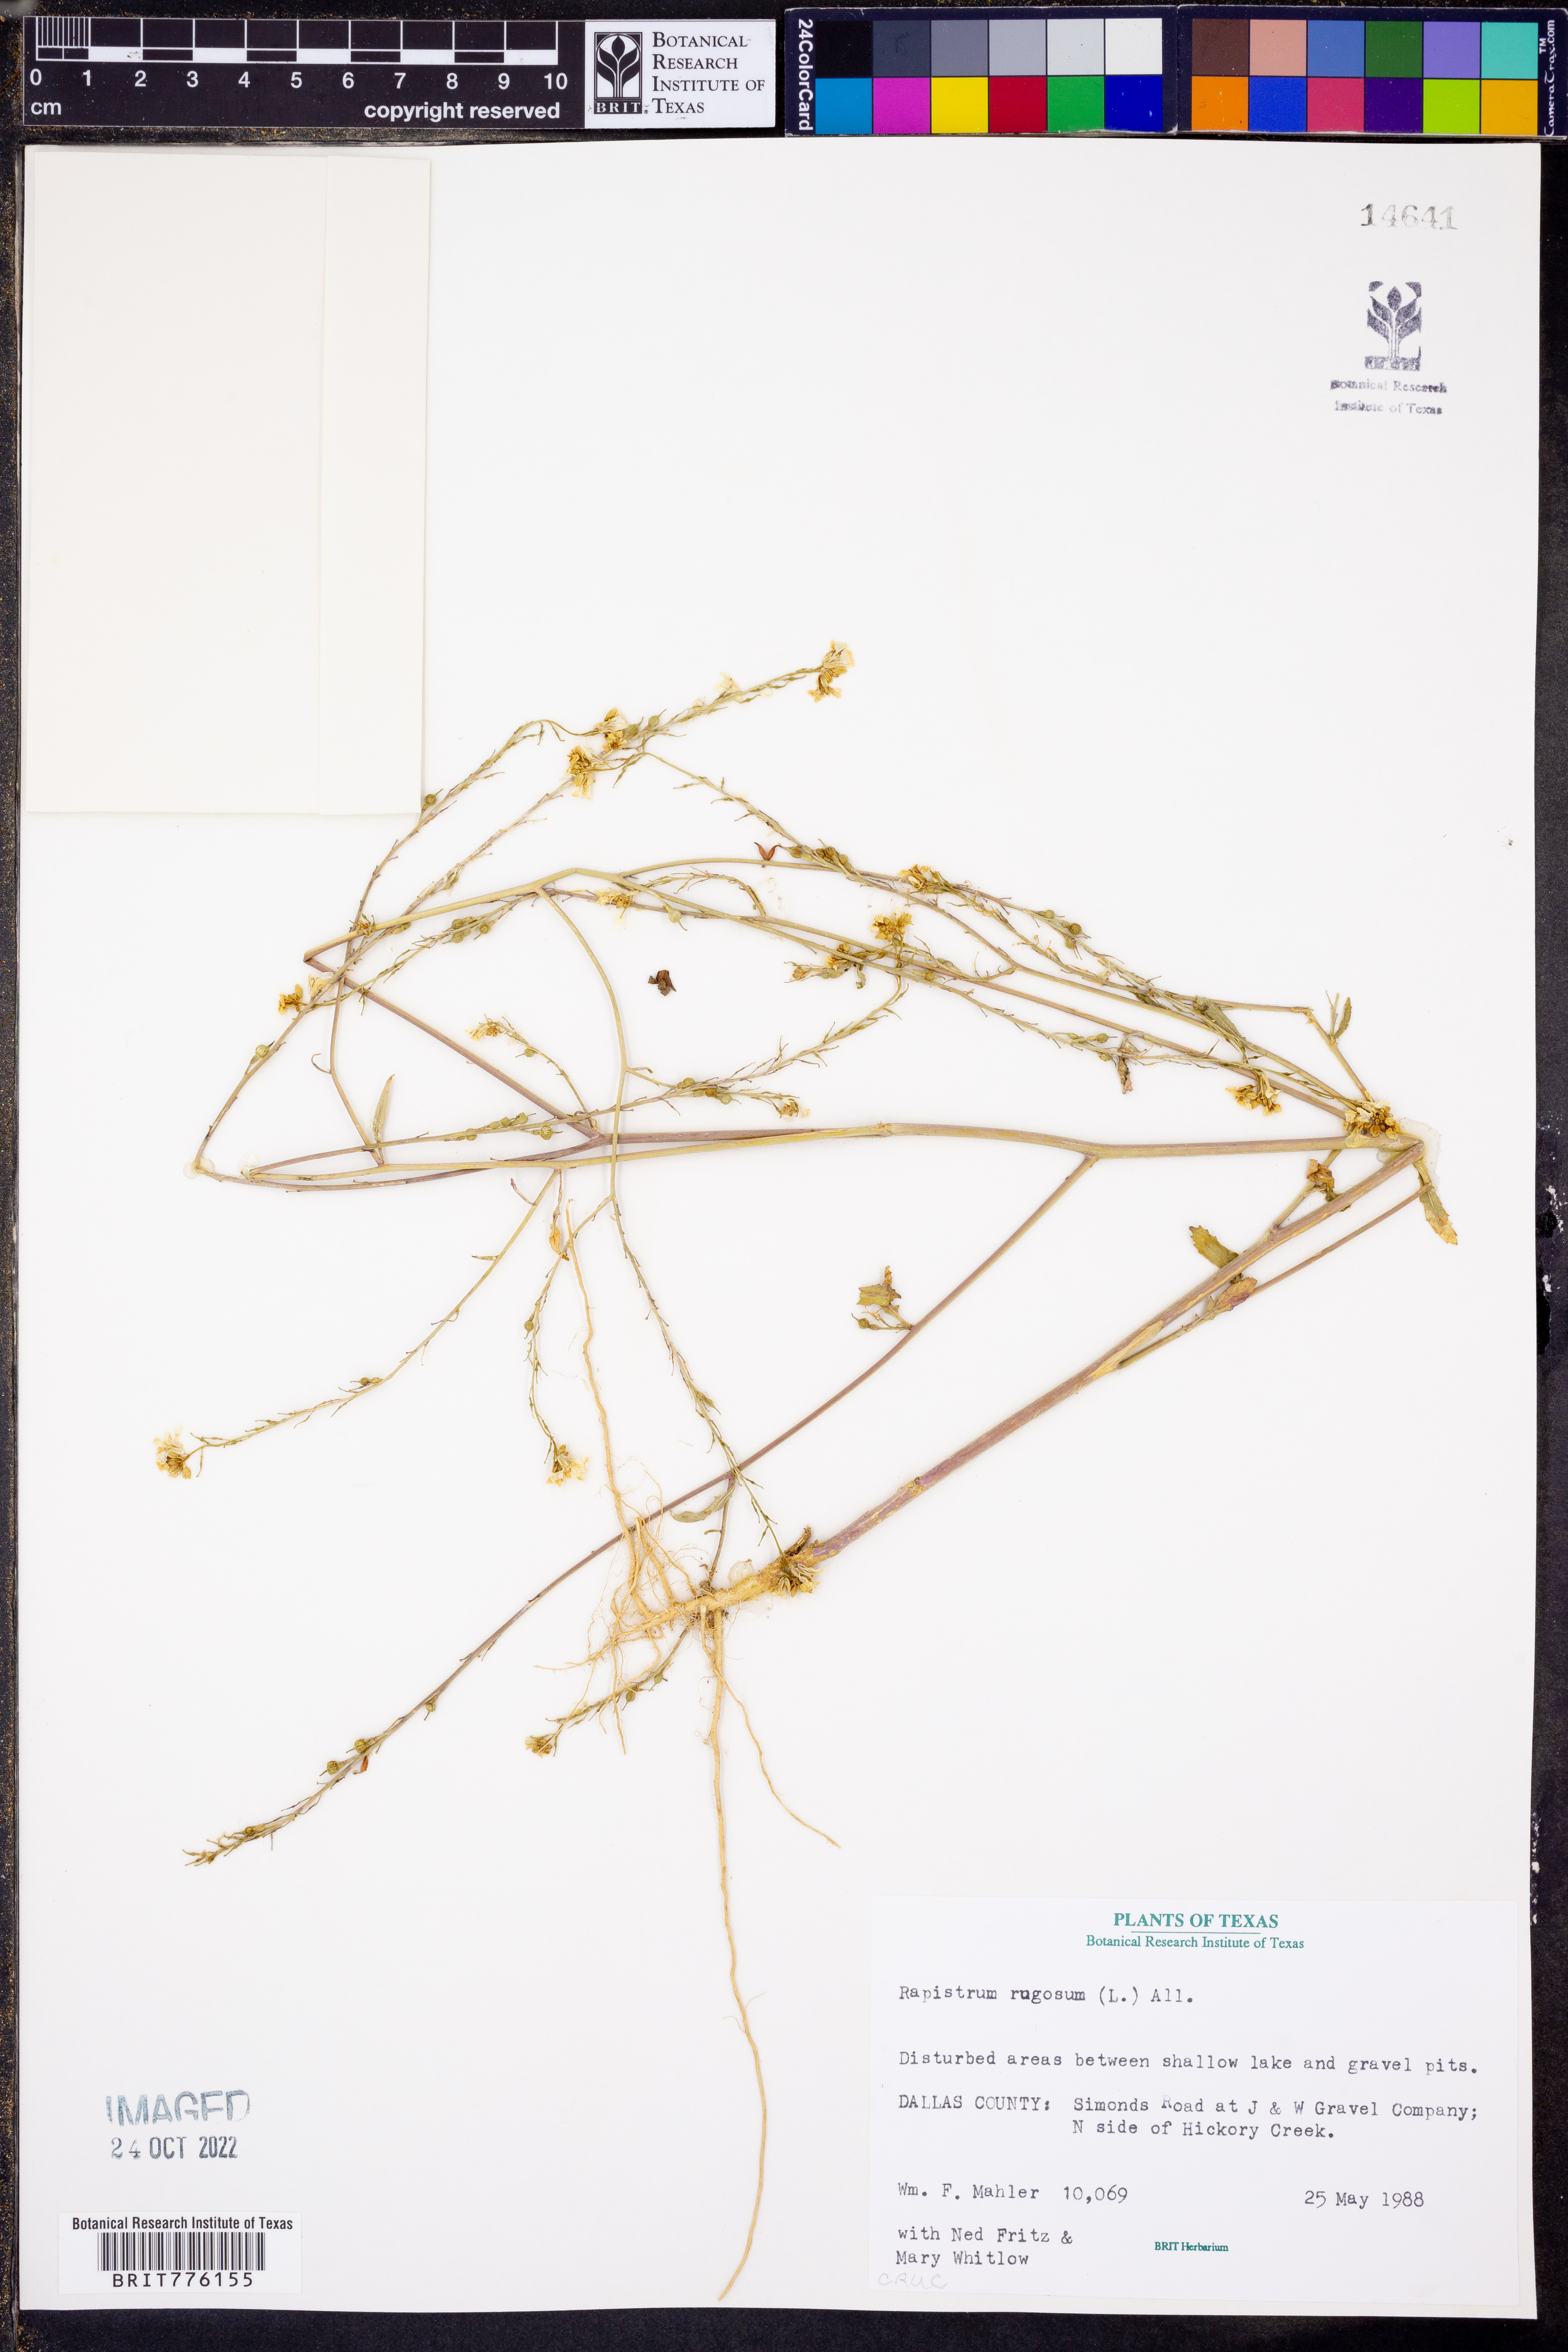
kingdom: Plantae
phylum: Tracheophyta
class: Magnoliopsida
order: Brassicales
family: Brassicaceae
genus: Rapistrum
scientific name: Rapistrum rugosum
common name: Annual bastardcabbage
